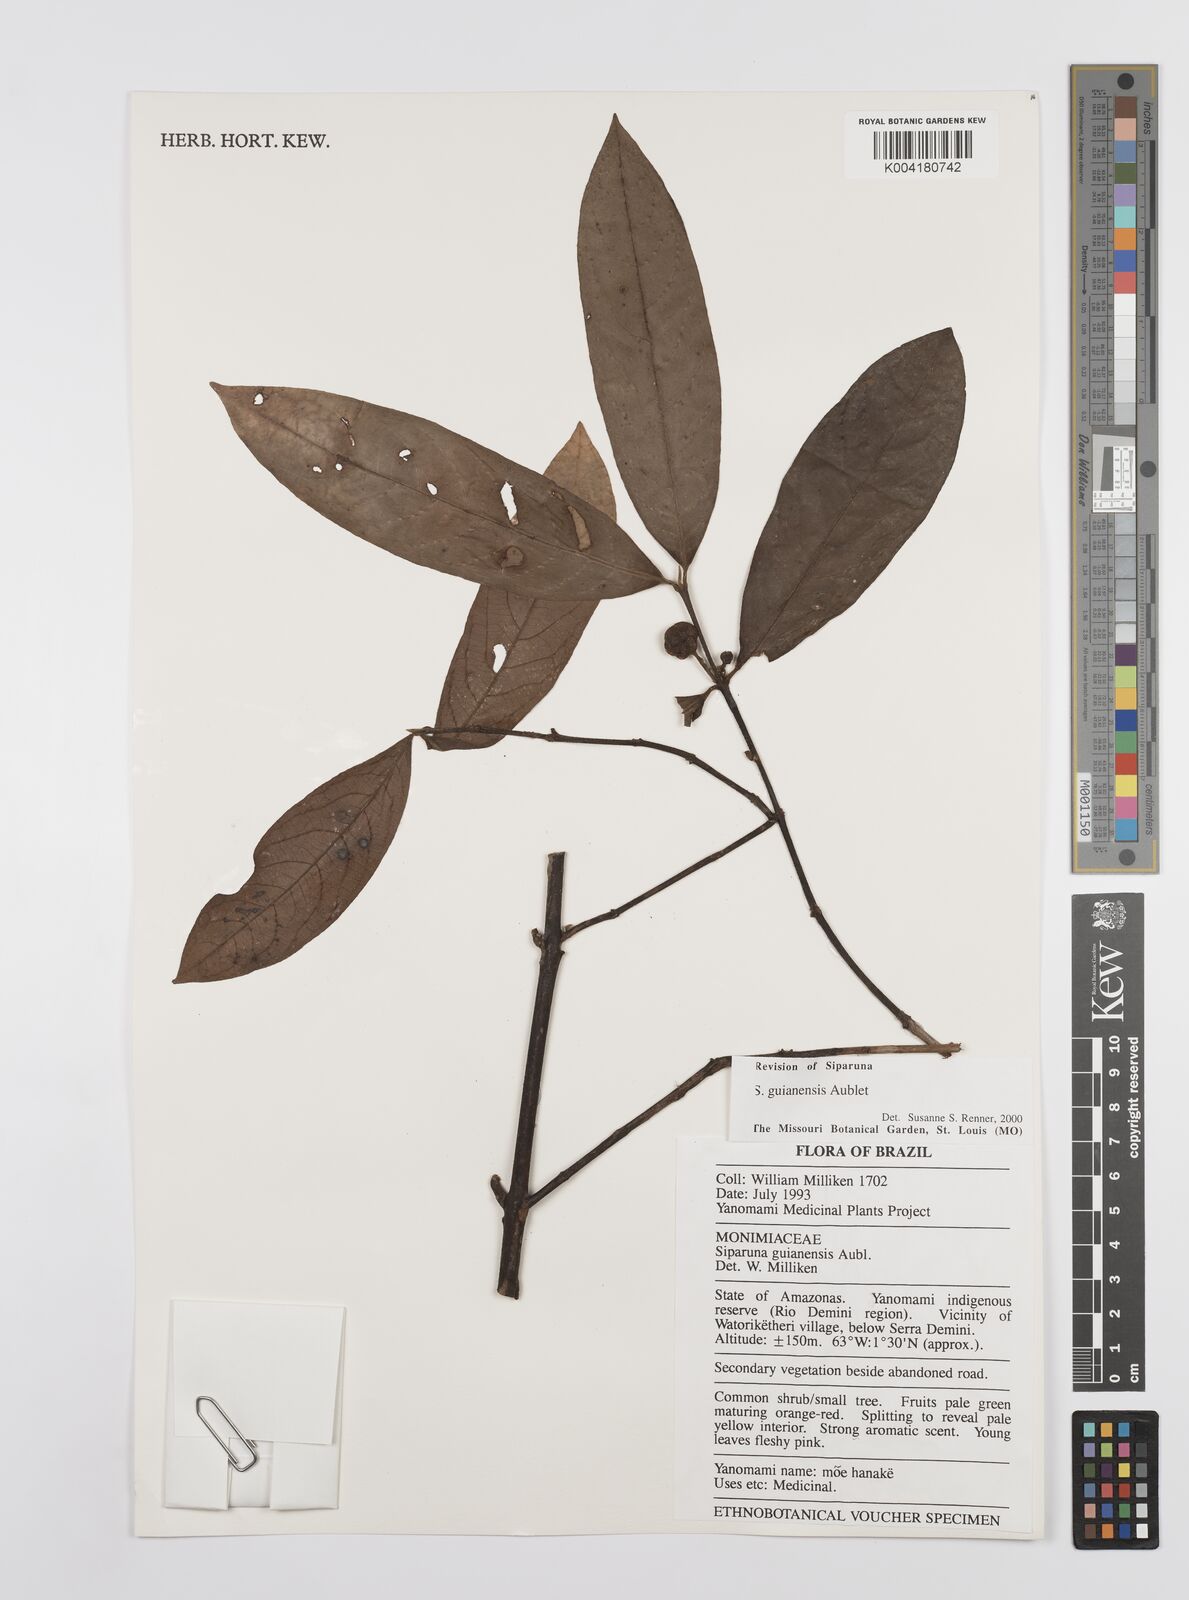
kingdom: Plantae
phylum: Tracheophyta
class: Magnoliopsida
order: Laurales
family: Siparunaceae
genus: Siparuna
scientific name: Siparuna guianensis
